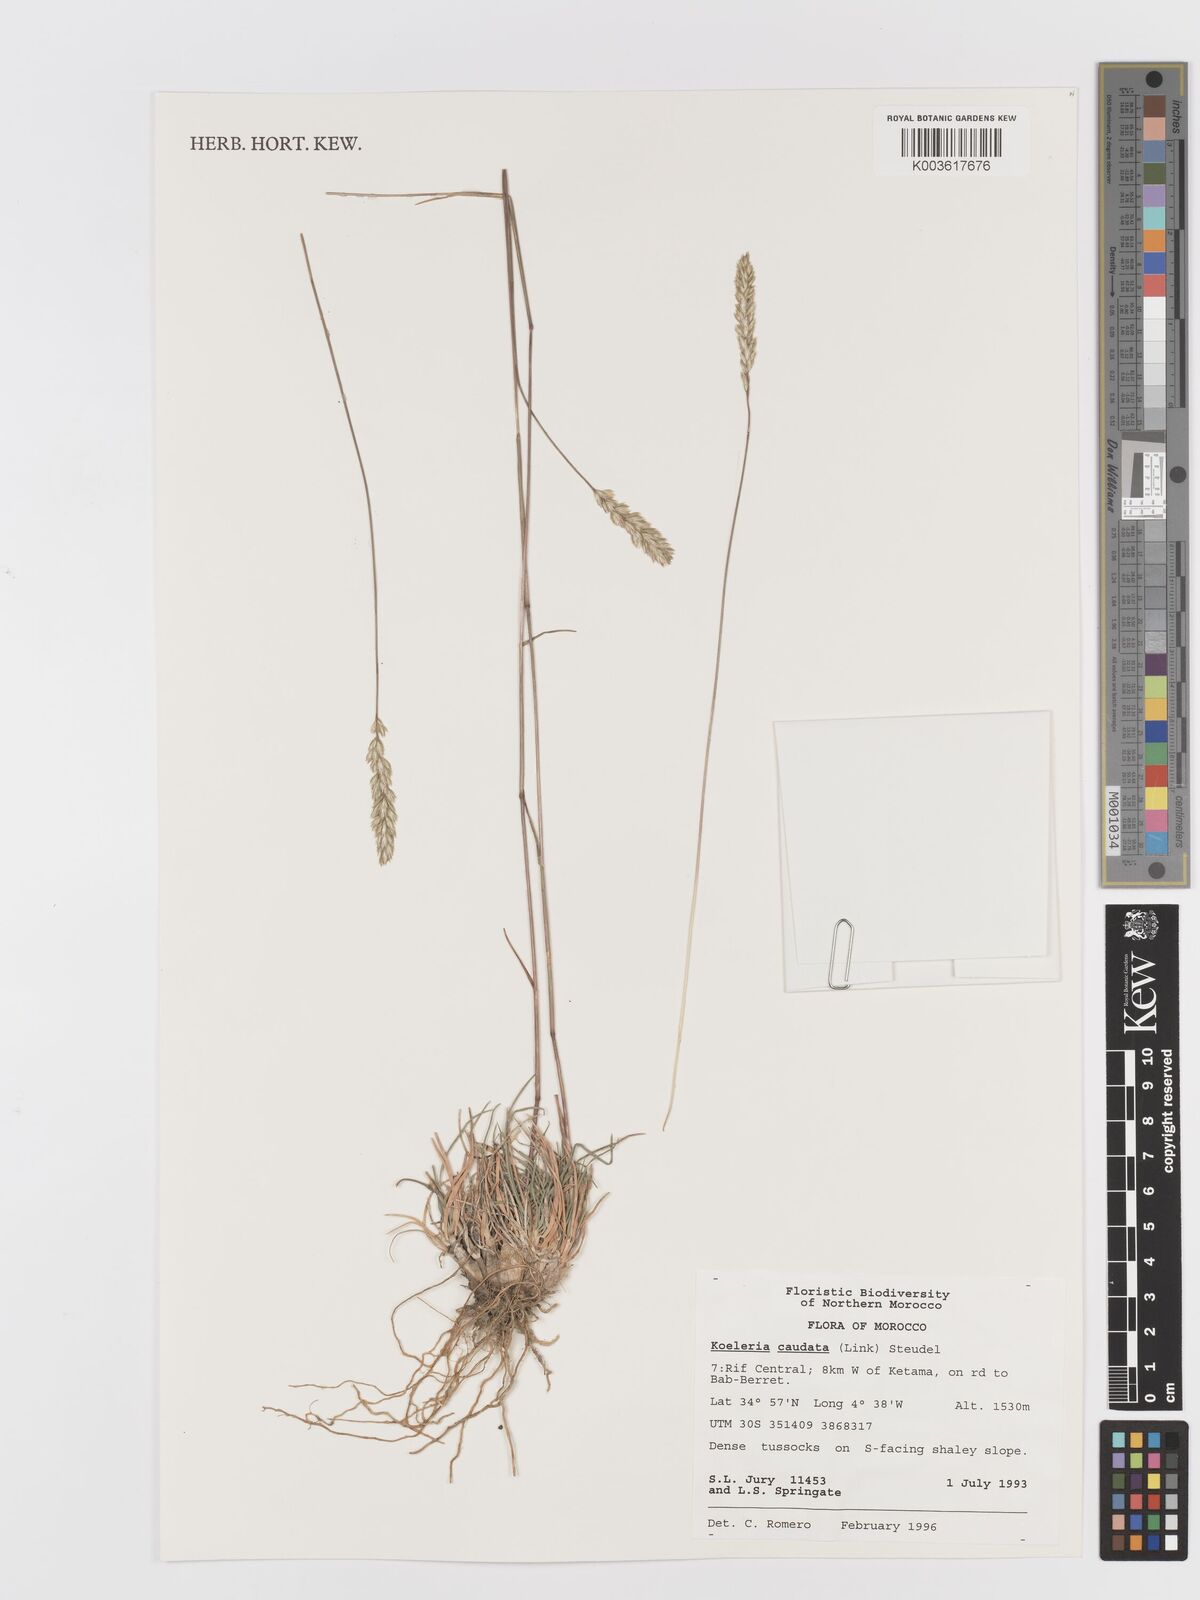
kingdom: Plantae
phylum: Tracheophyta
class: Liliopsida
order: Poales
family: Poaceae
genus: Koeleria
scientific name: Koeleria caudata
